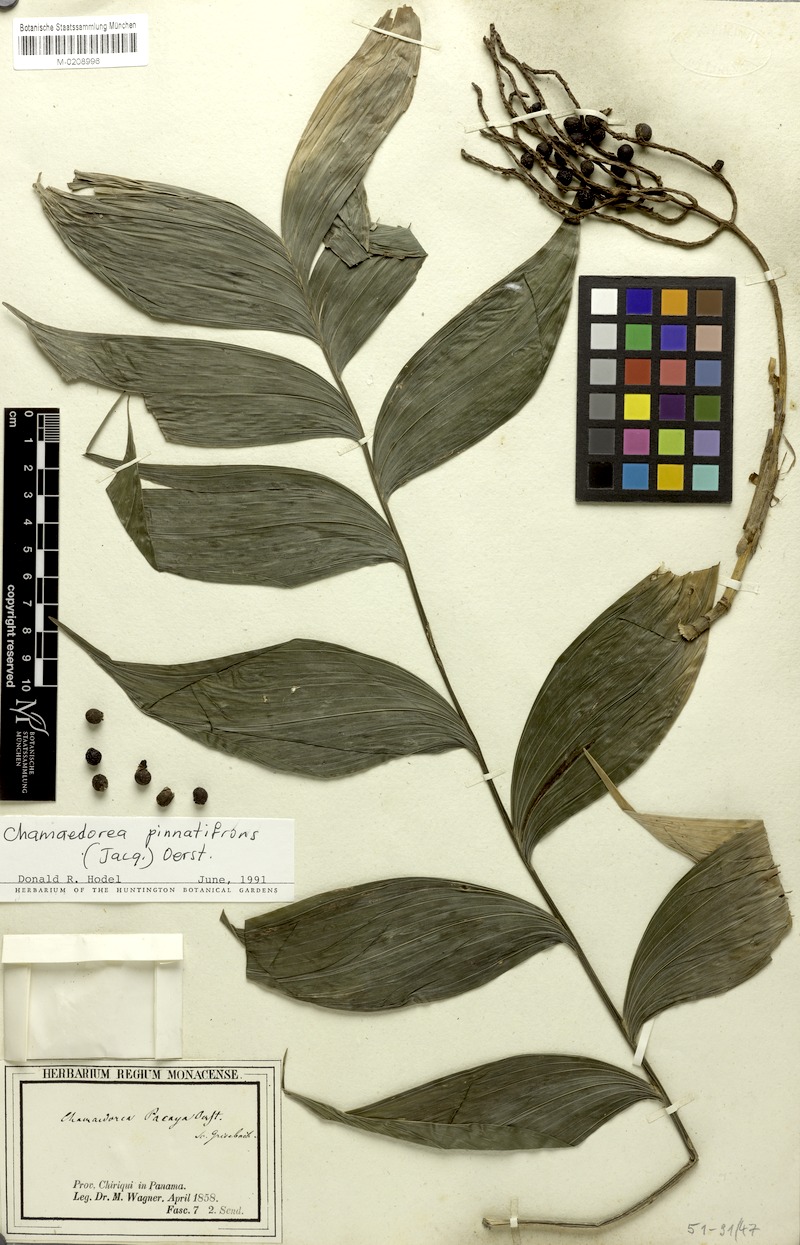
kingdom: Plantae
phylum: Tracheophyta
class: Liliopsida
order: Arecales
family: Arecaceae
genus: Chamaedorea
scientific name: Chamaedorea pinnatifrons
